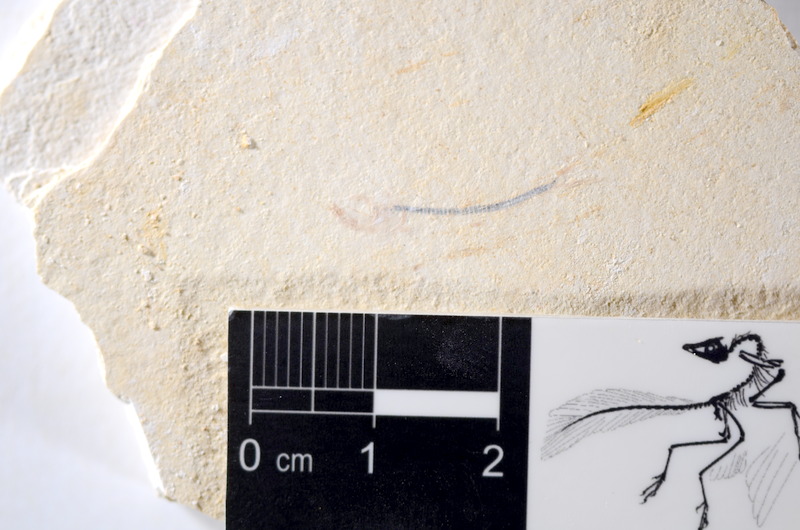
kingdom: Animalia
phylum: Chordata
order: Salmoniformes
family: Orthogonikleithridae
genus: Orthogonikleithrus
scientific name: Orthogonikleithrus hoelli
